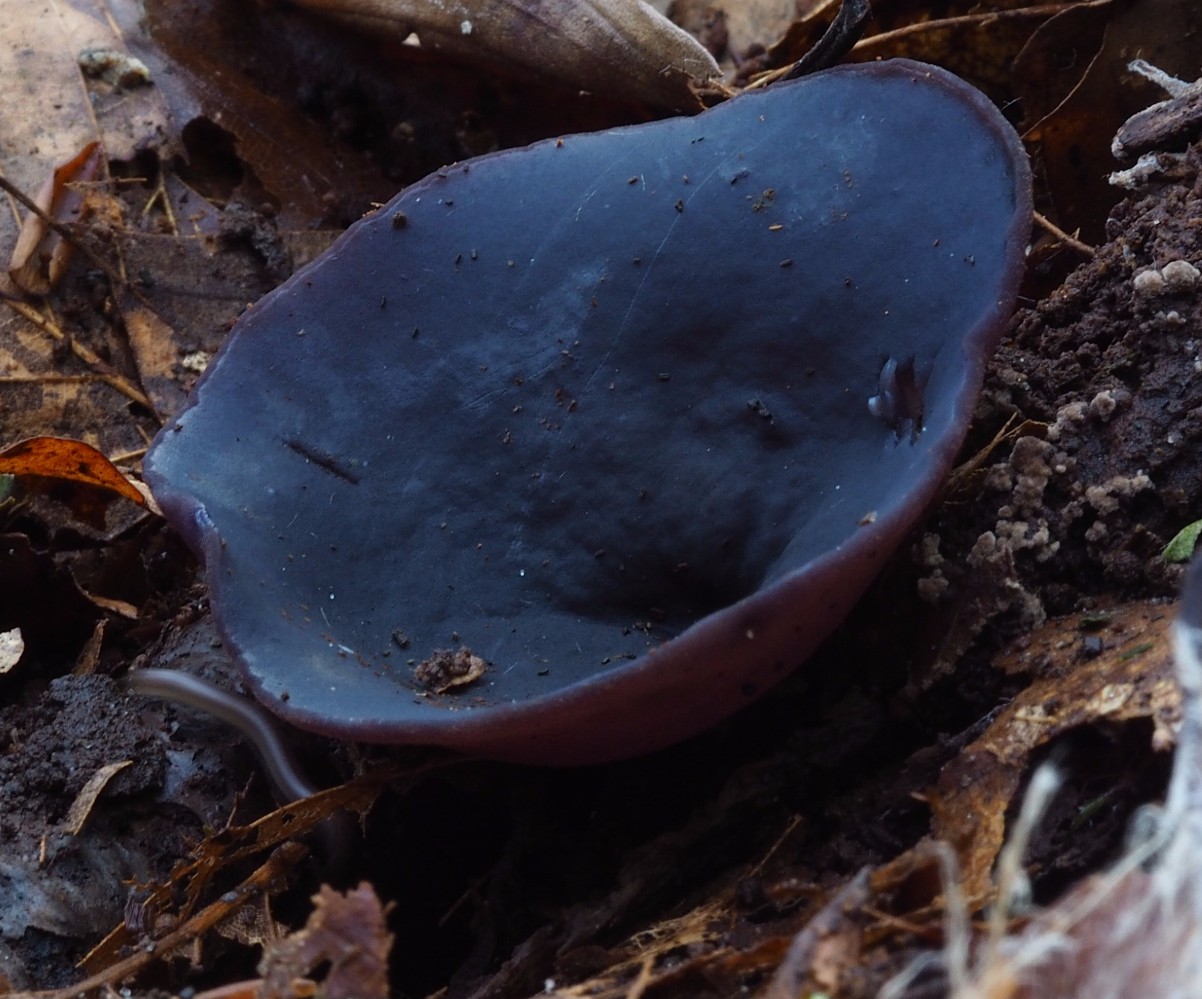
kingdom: Fungi
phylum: Ascomycota
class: Pezizomycetes
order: Pezizales
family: Pezizaceae
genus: Peziza
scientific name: Peziza saniosa
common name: blåmælket bægersvamp
